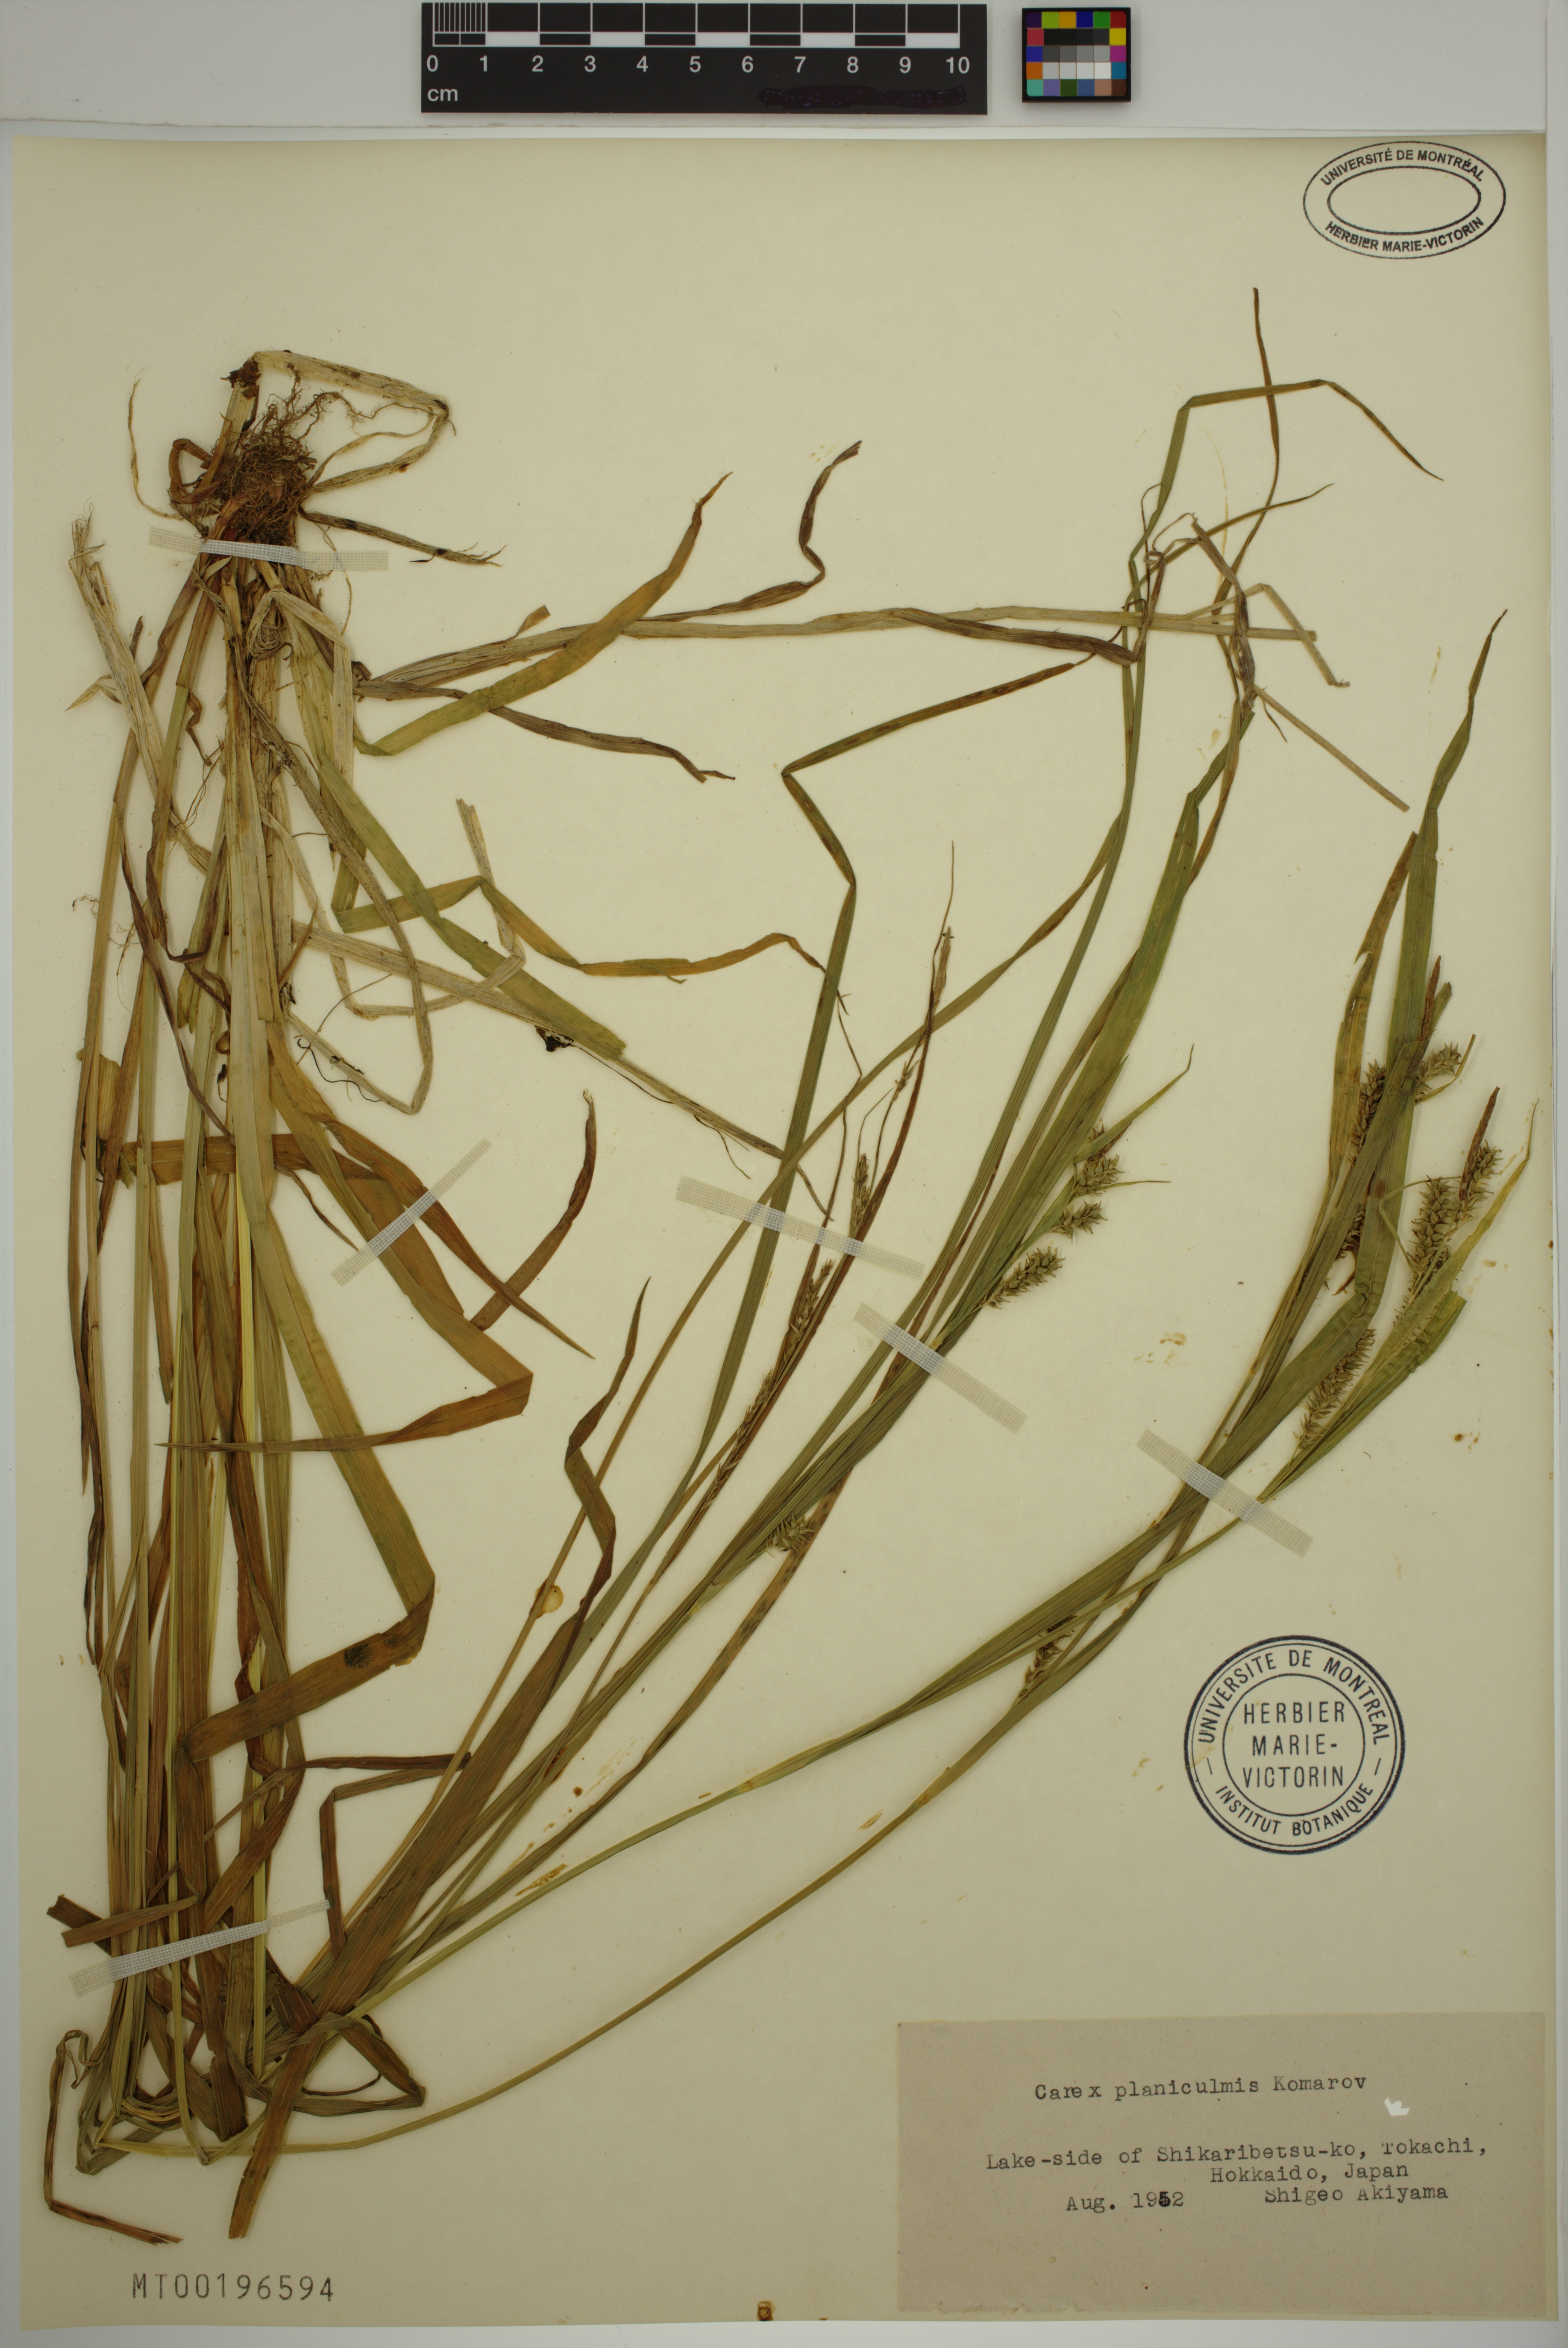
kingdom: Plantae
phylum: Tracheophyta
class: Liliopsida
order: Poales
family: Cyperaceae
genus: Carex
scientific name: Carex planiculmis
